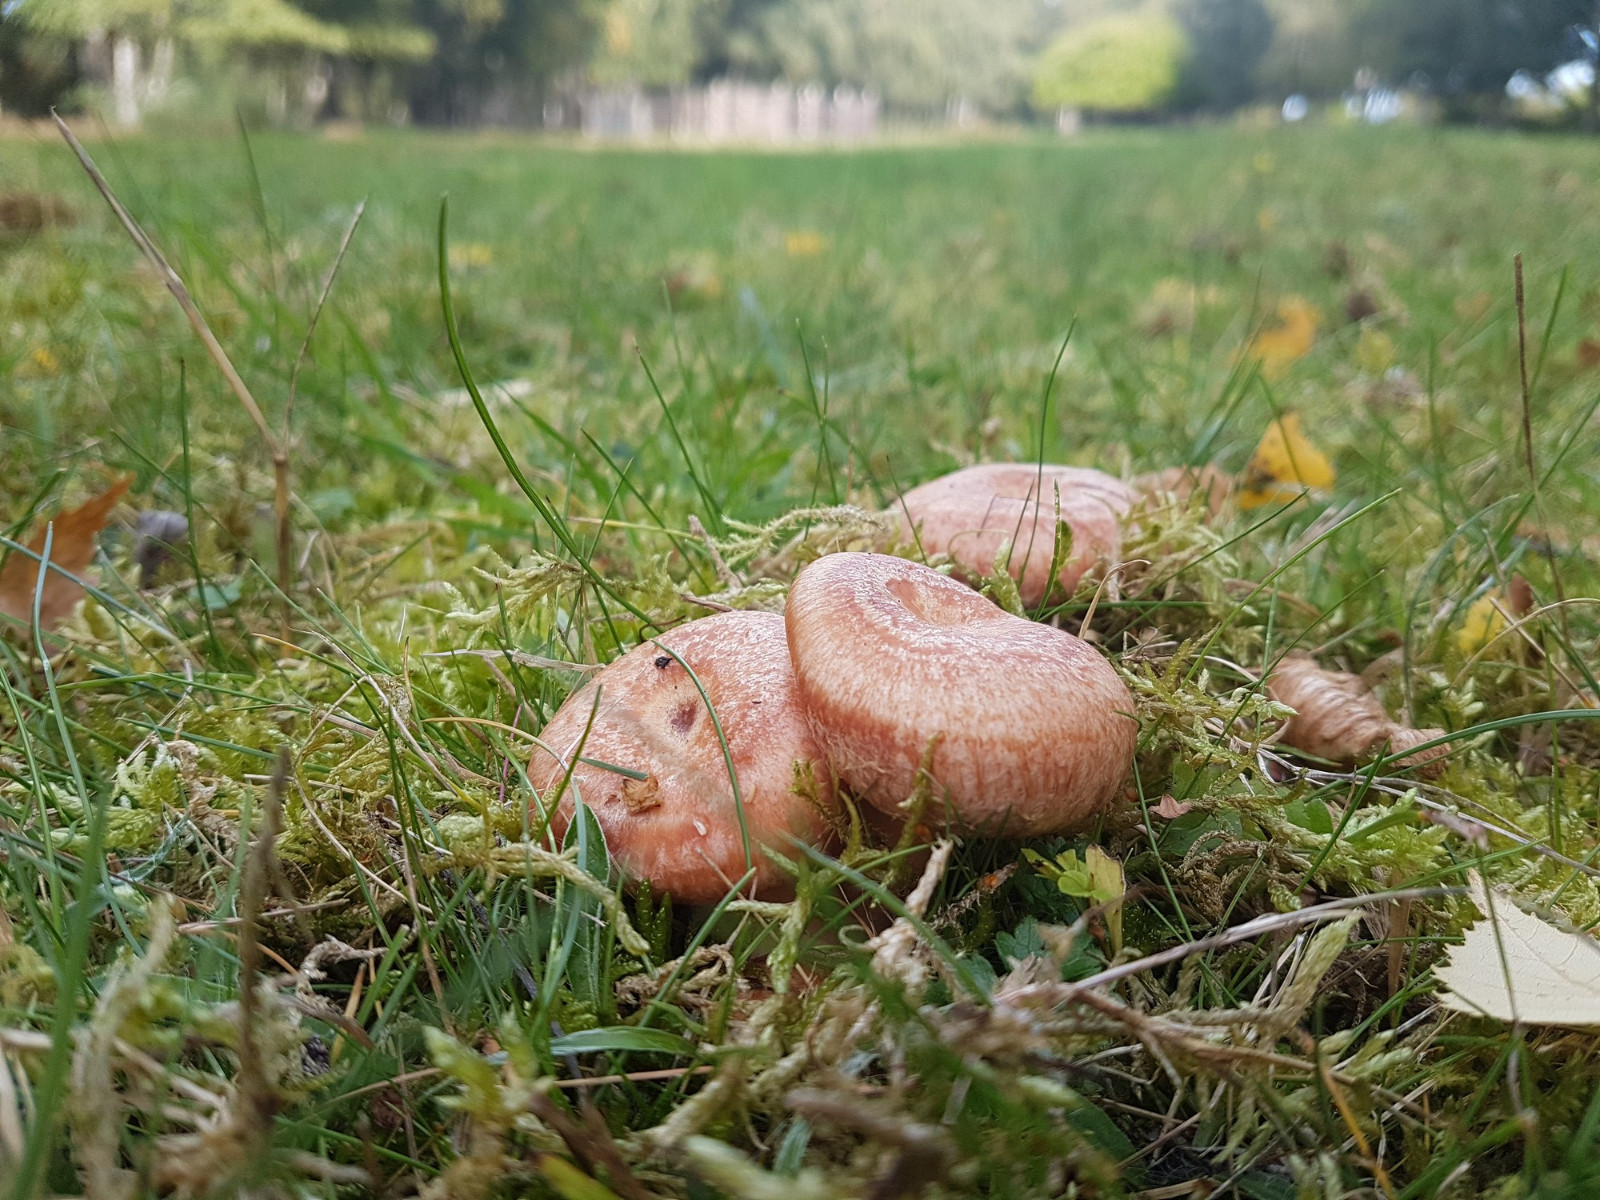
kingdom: Fungi
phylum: Basidiomycota
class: Agaricomycetes
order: Russulales
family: Russulaceae
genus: Lactarius
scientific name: Lactarius torminosus
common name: skægget mælkehat
